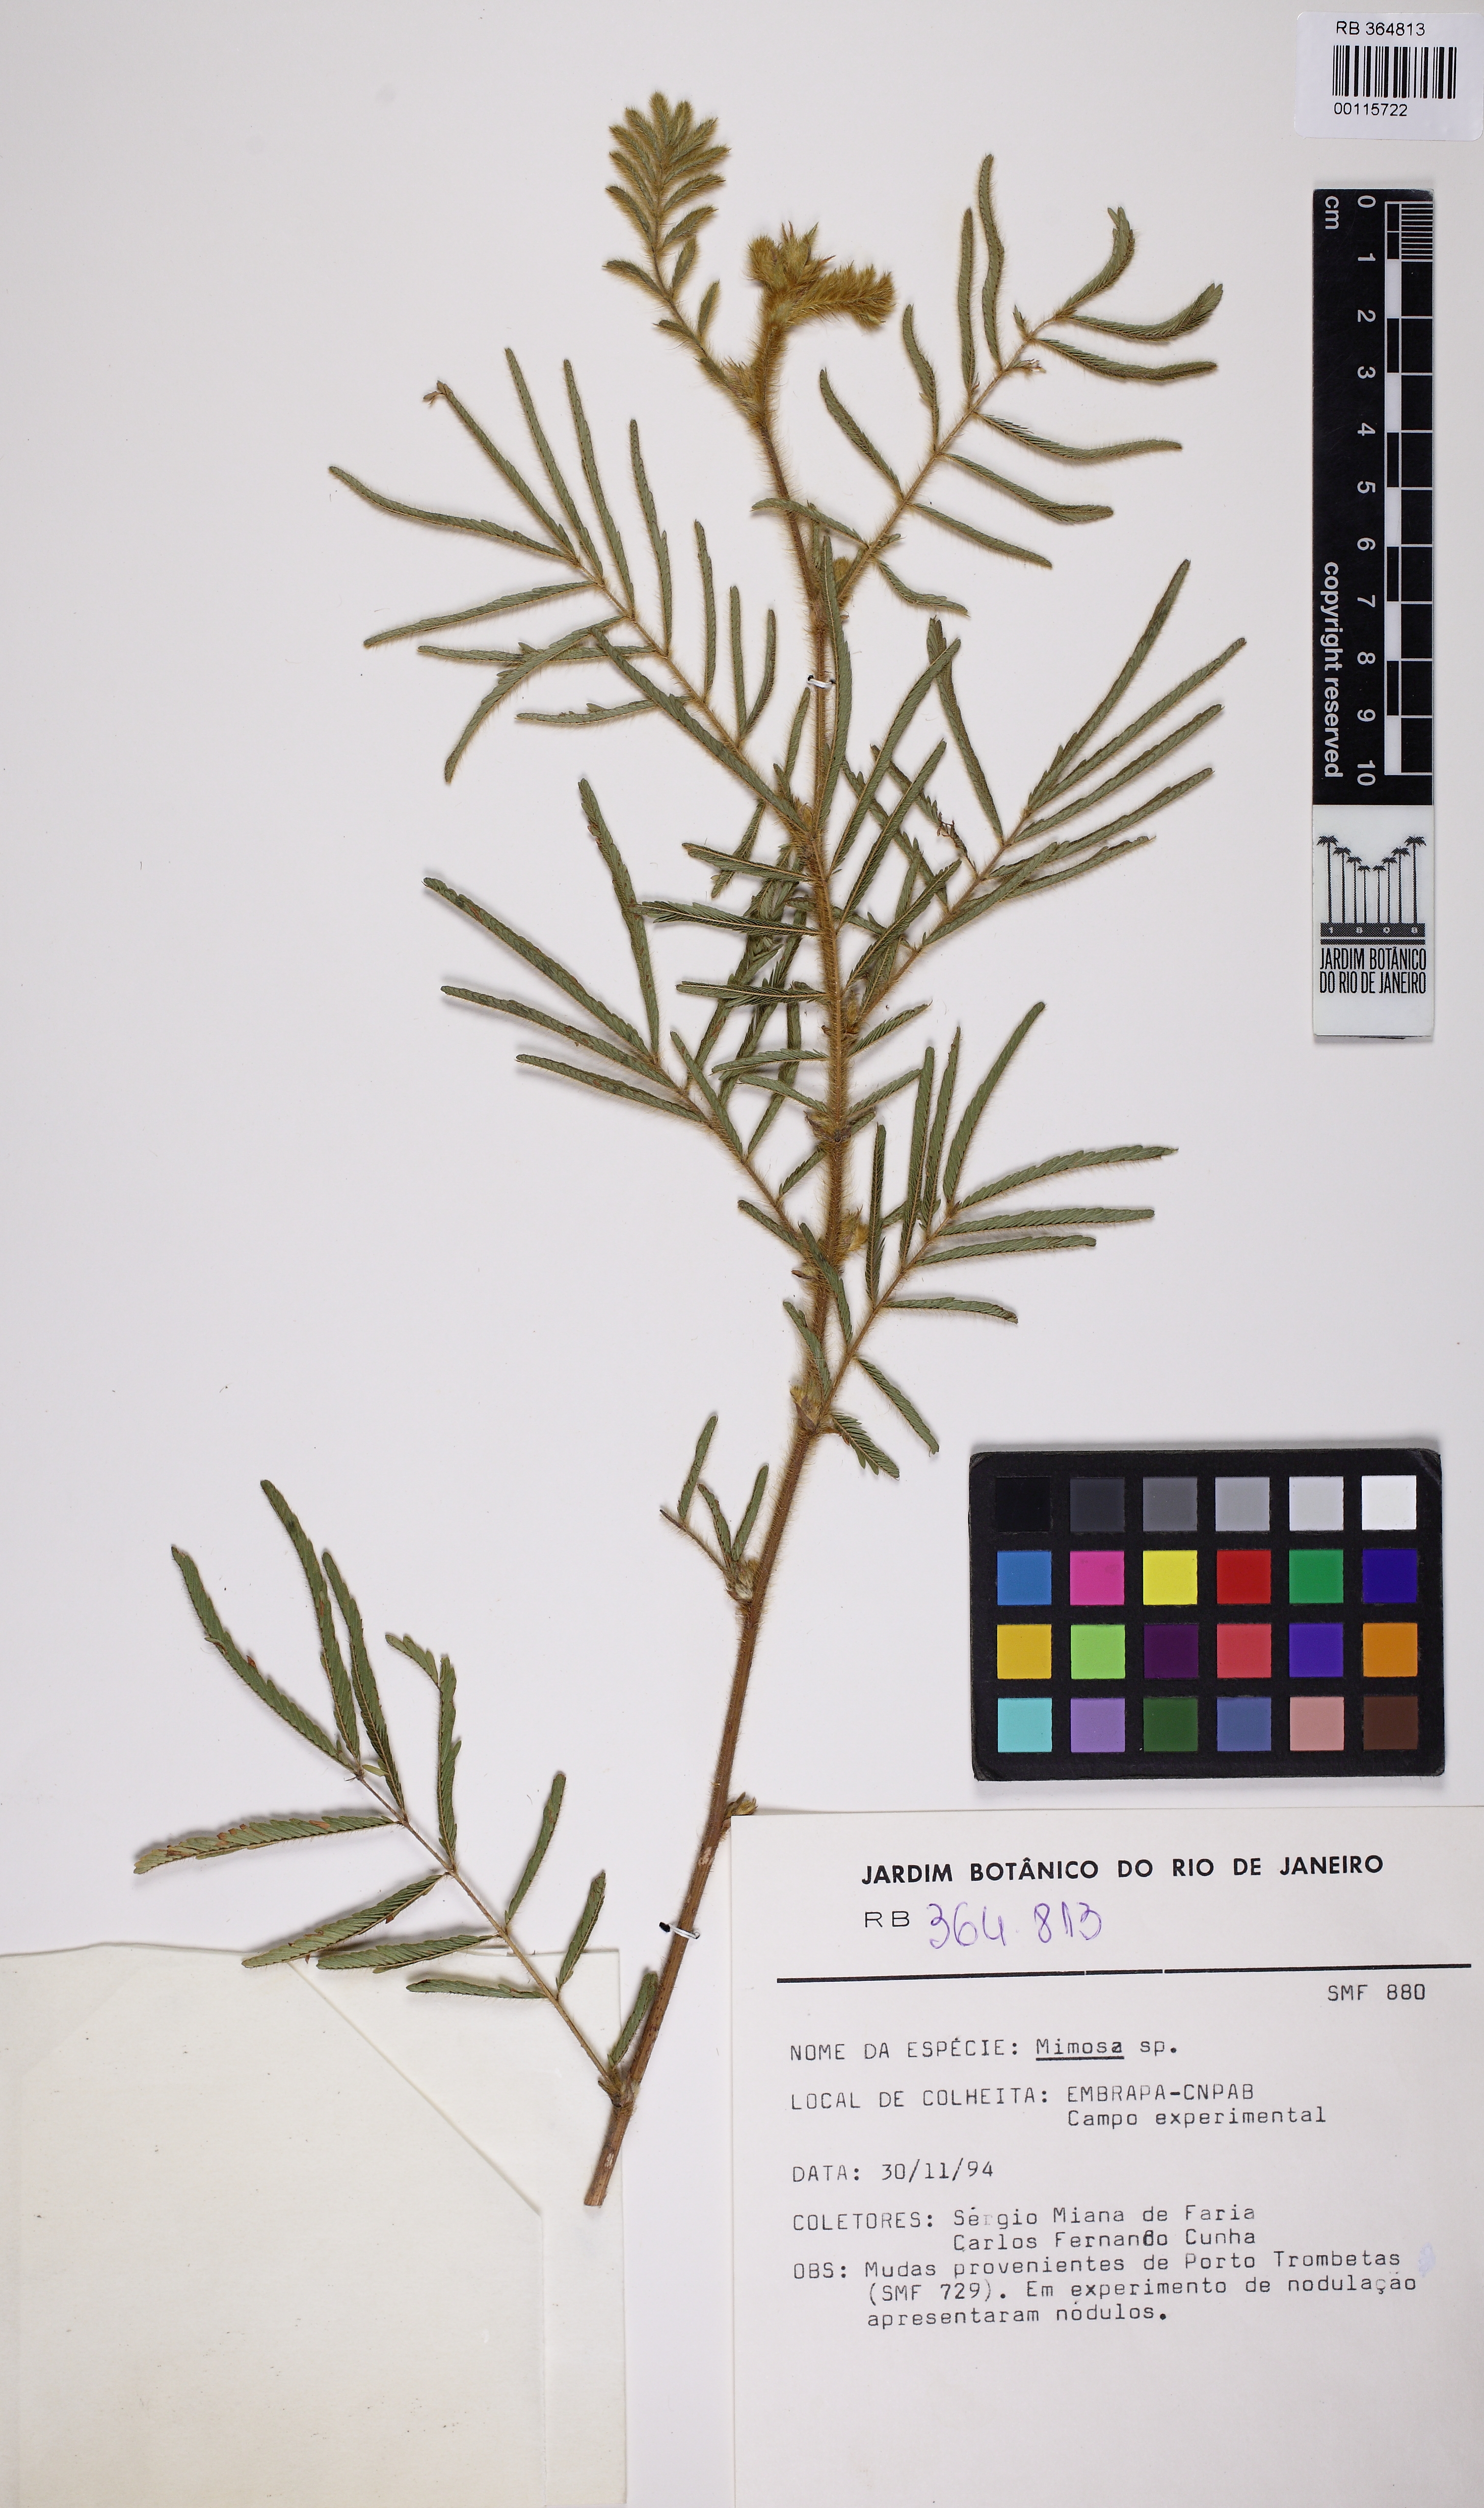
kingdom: Plantae
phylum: Tracheophyta
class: Magnoliopsida
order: Fabales
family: Fabaceae
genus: Mimosa
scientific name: Mimosa
